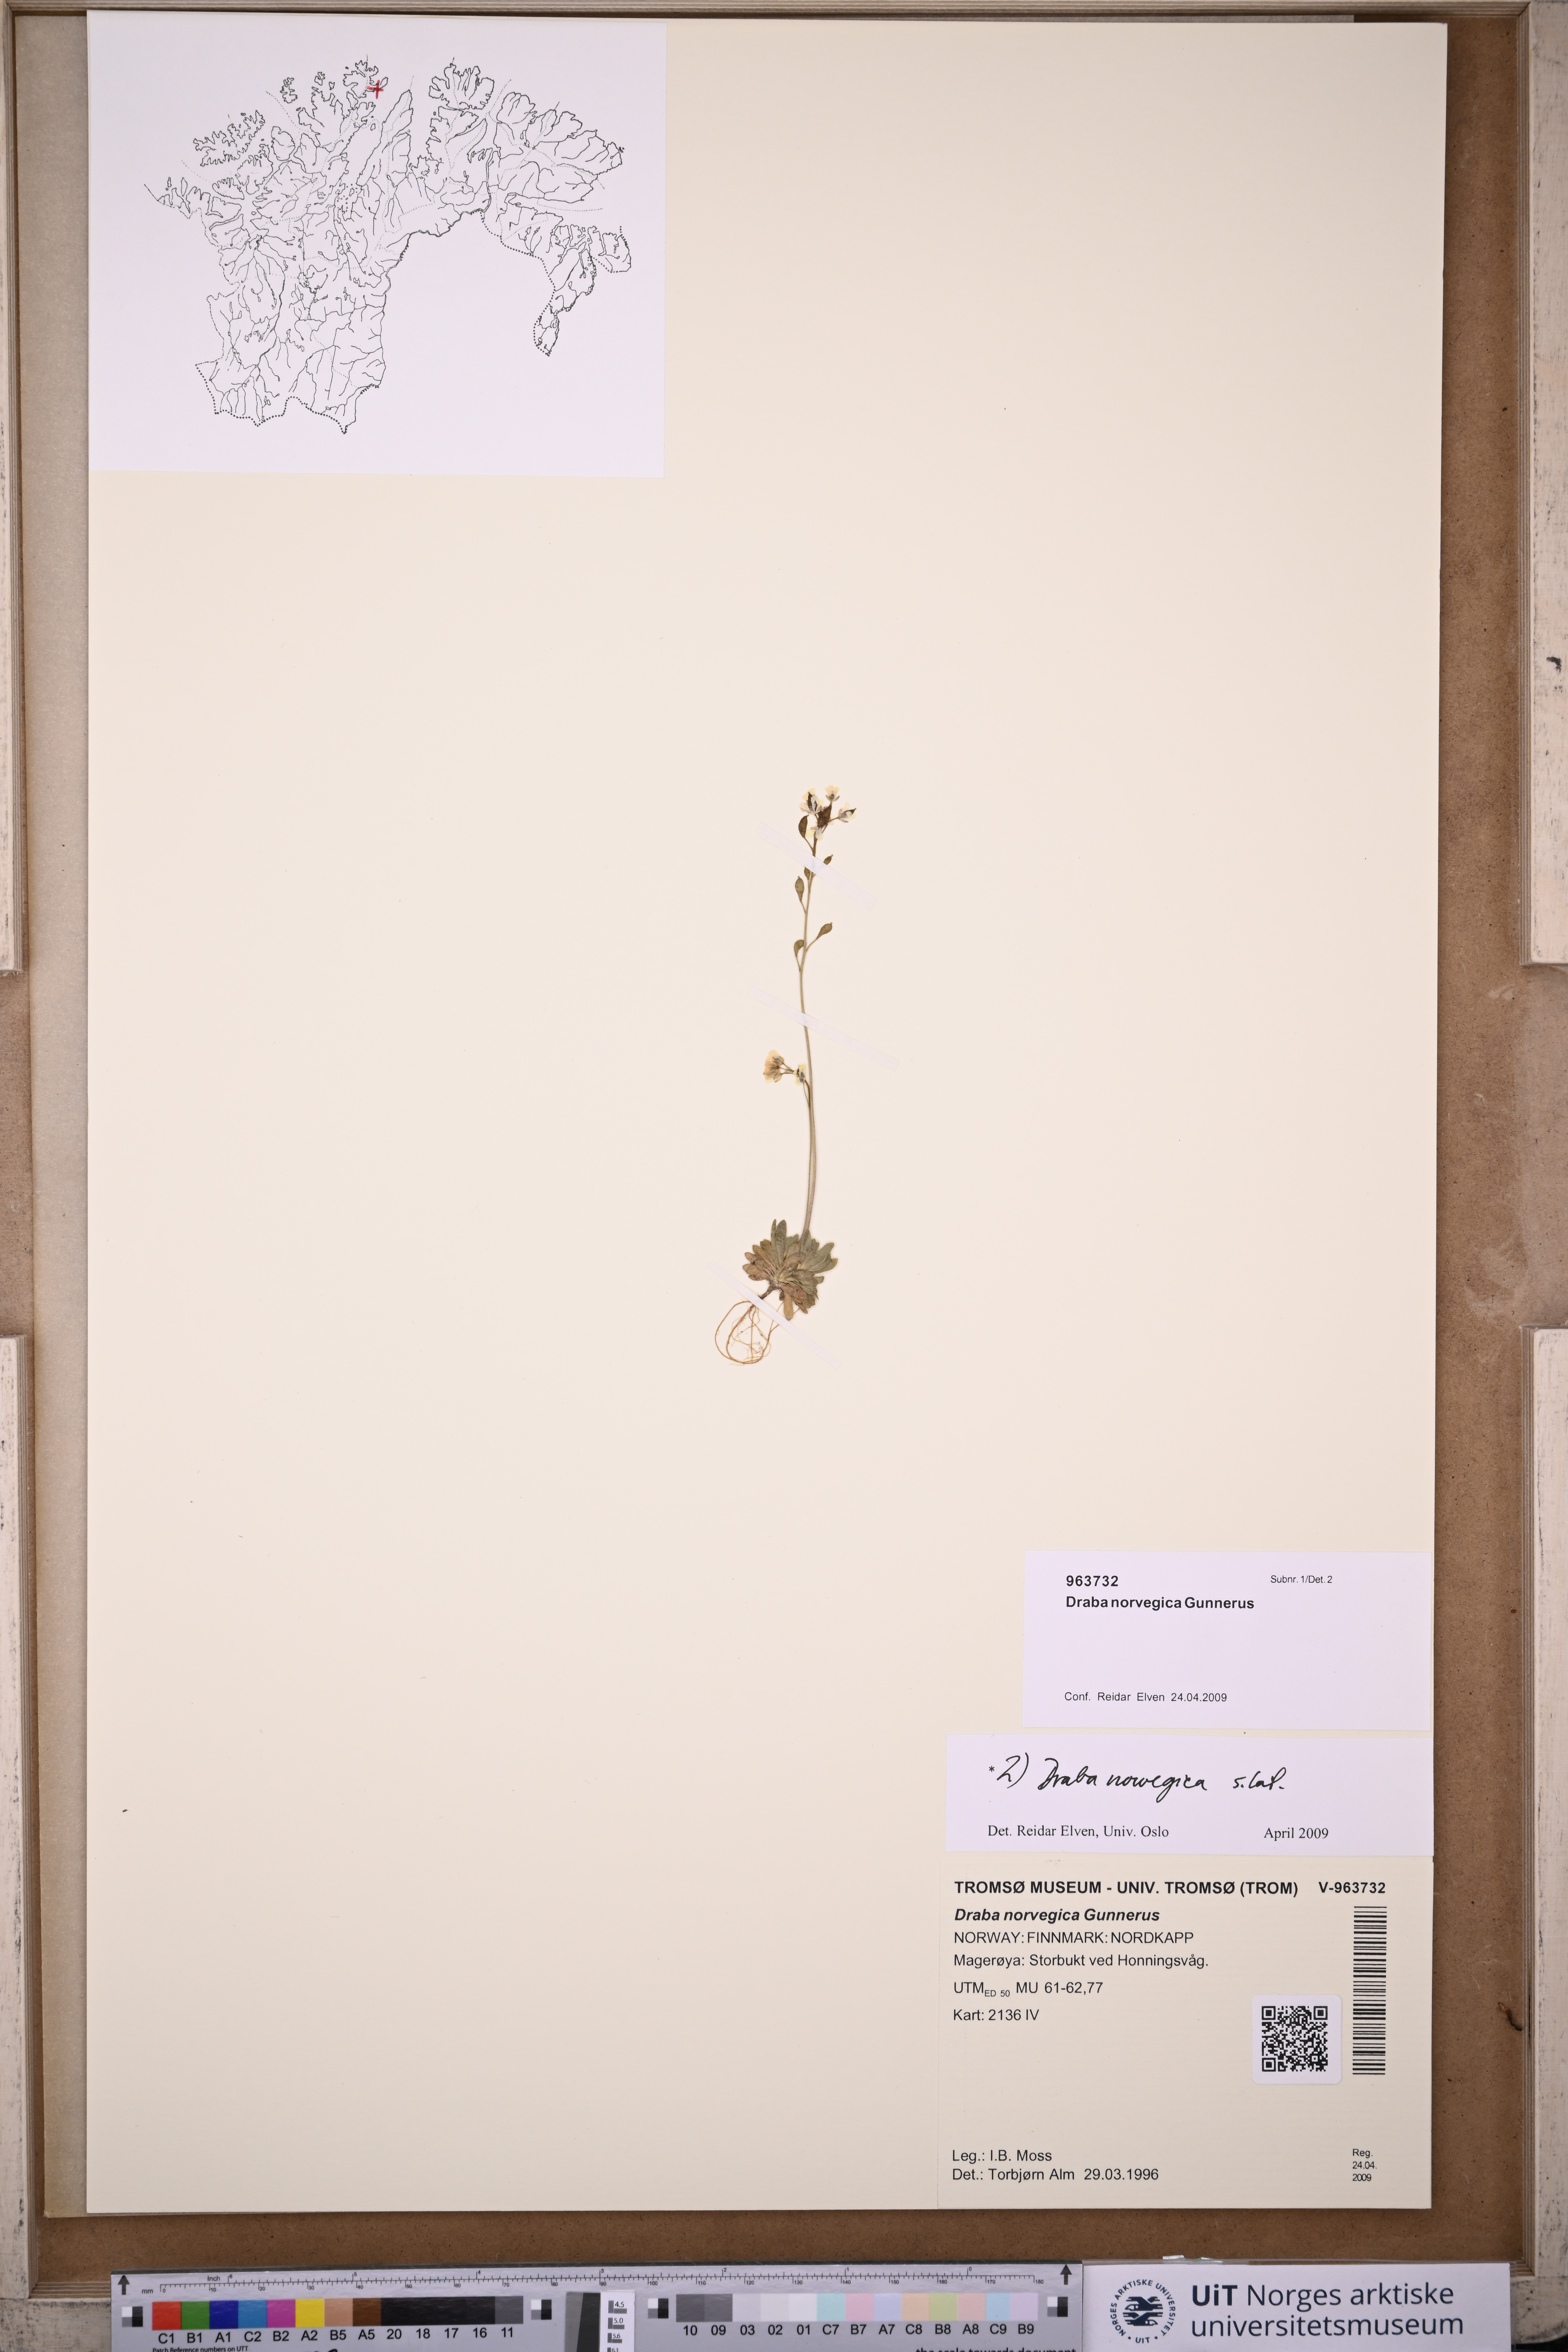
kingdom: Plantae
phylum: Tracheophyta
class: Magnoliopsida
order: Brassicales
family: Brassicaceae
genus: Draba
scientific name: Draba norvegica
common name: Rock whitlowgrass
